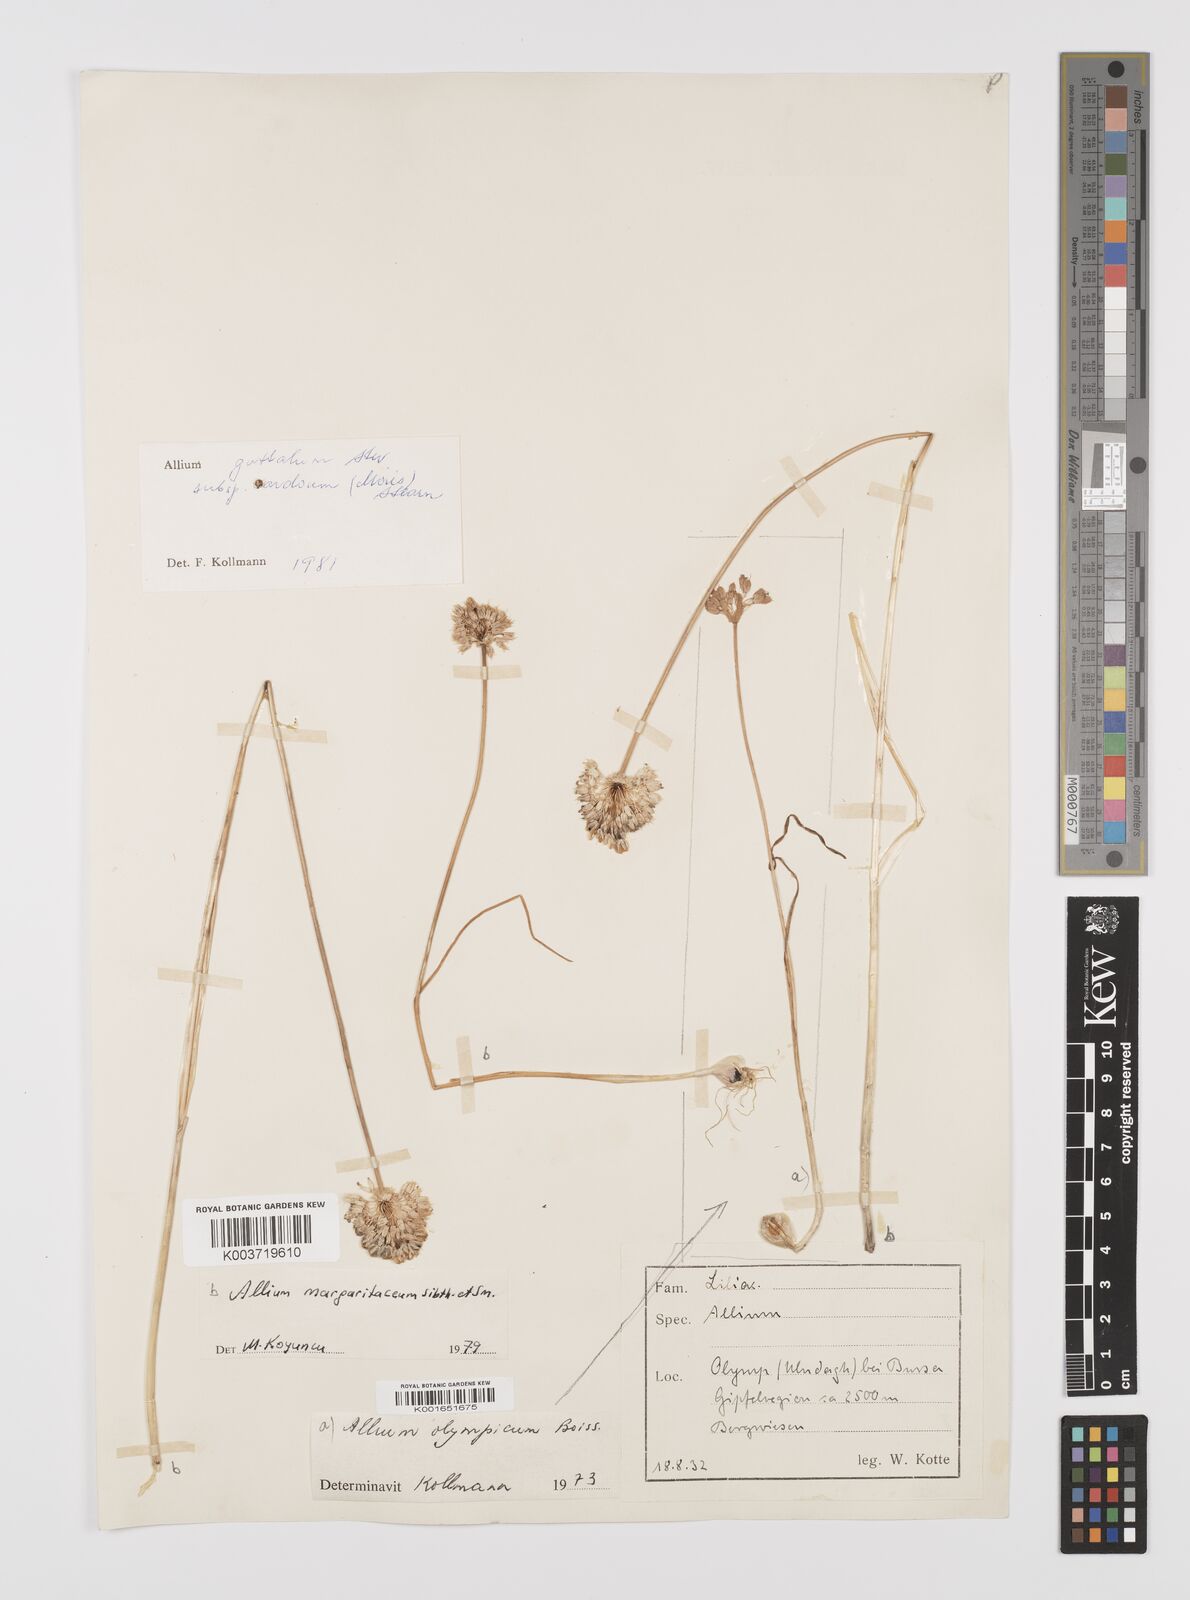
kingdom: Plantae
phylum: Tracheophyta
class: Liliopsida
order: Asparagales
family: Amaryllidaceae
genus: Allium
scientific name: Allium guttatum
